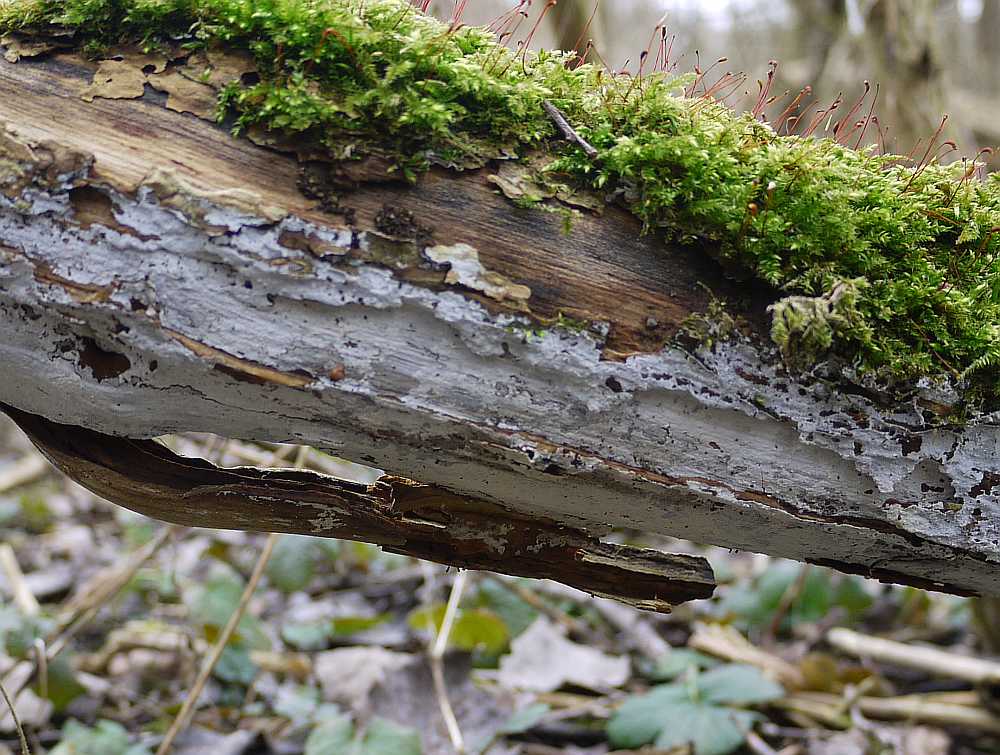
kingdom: Fungi
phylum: Basidiomycota
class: Agaricomycetes
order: Corticiales
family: Corticiaceae
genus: Lyomyces
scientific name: Lyomyces sambuci
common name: almindelig hyldehinde
